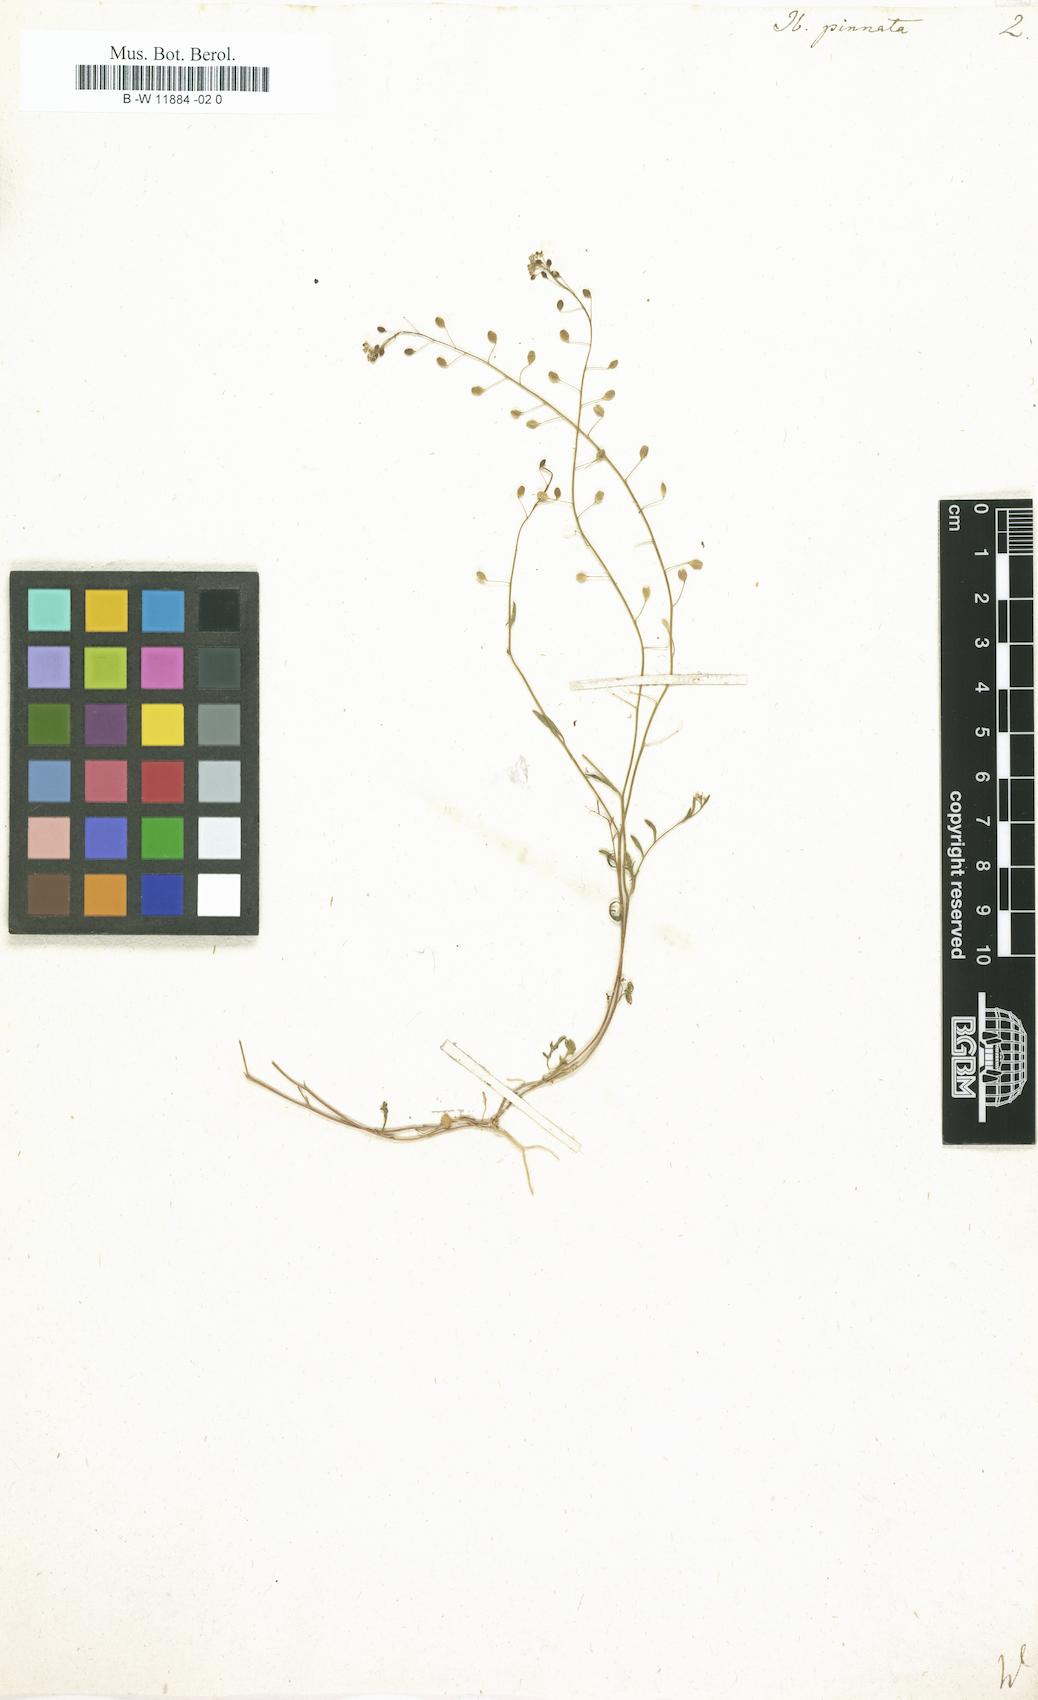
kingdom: Plantae
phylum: Tracheophyta
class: Magnoliopsida
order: Brassicales
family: Brassicaceae
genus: Iberis
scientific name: Iberis pinnata
